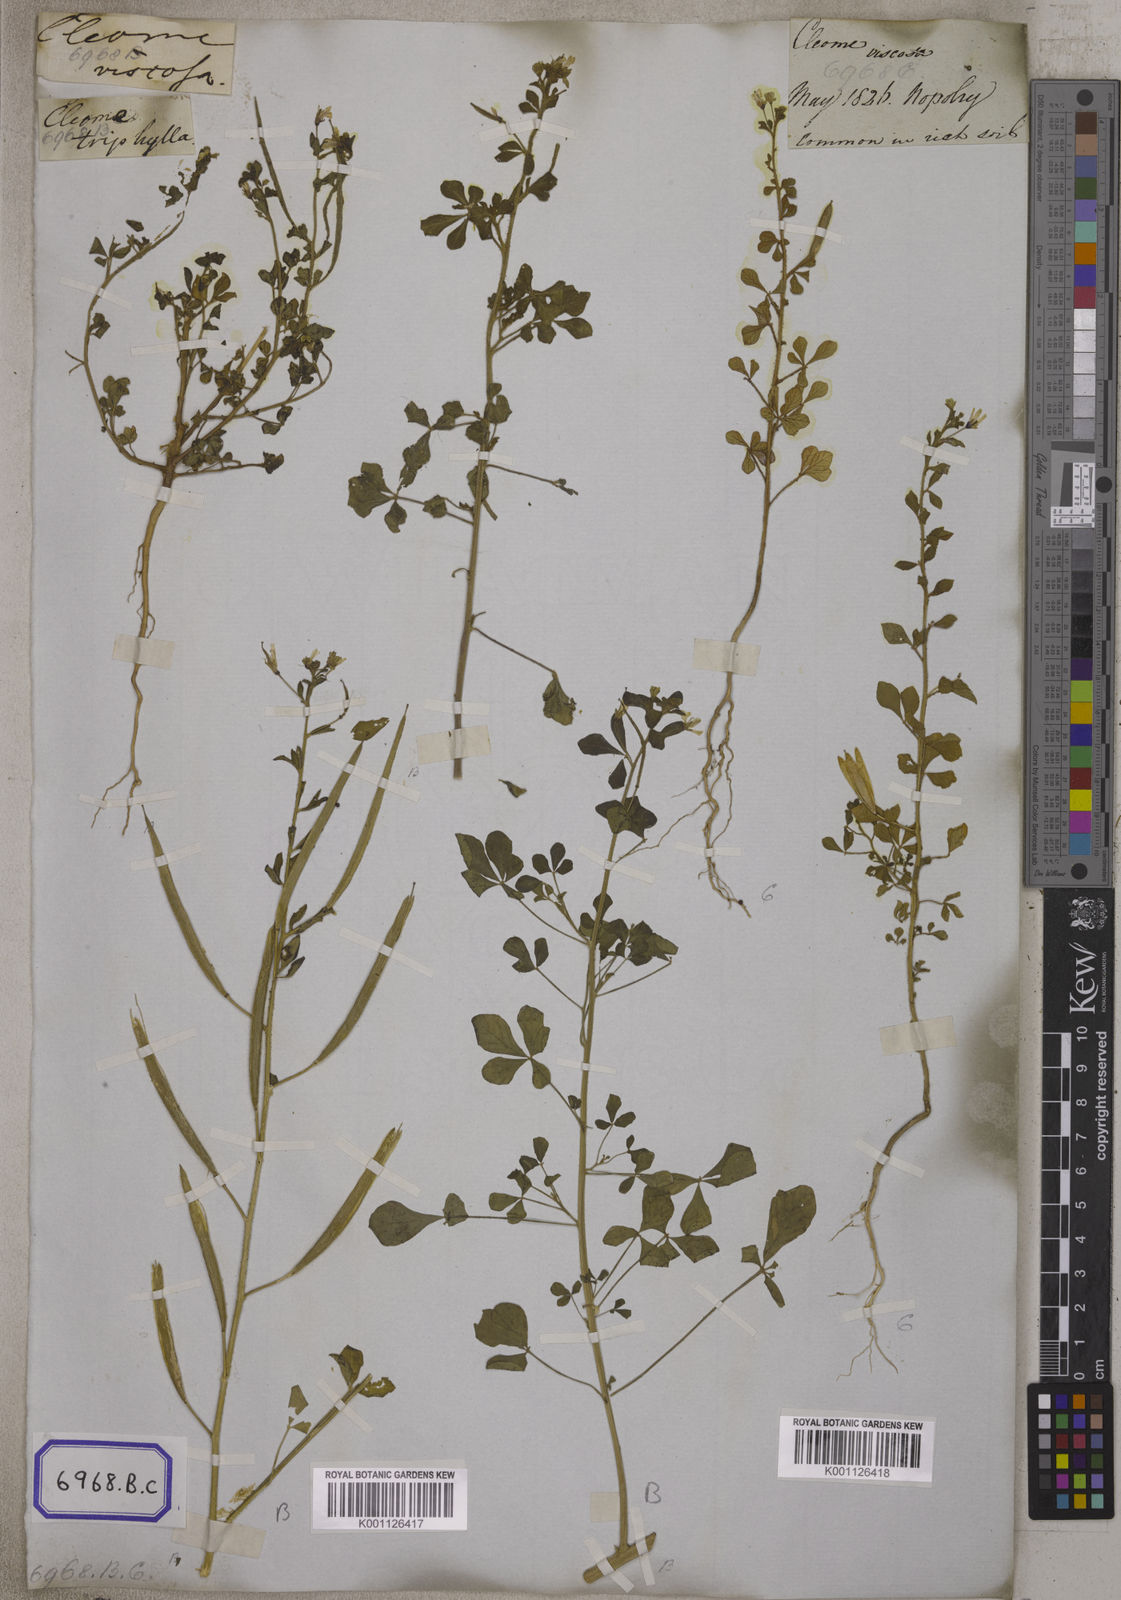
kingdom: Plantae
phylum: Tracheophyta
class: Magnoliopsida
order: Brassicales
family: Cleomaceae
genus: Arivela
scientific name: Arivela viscosa
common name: Asian spiderflower
